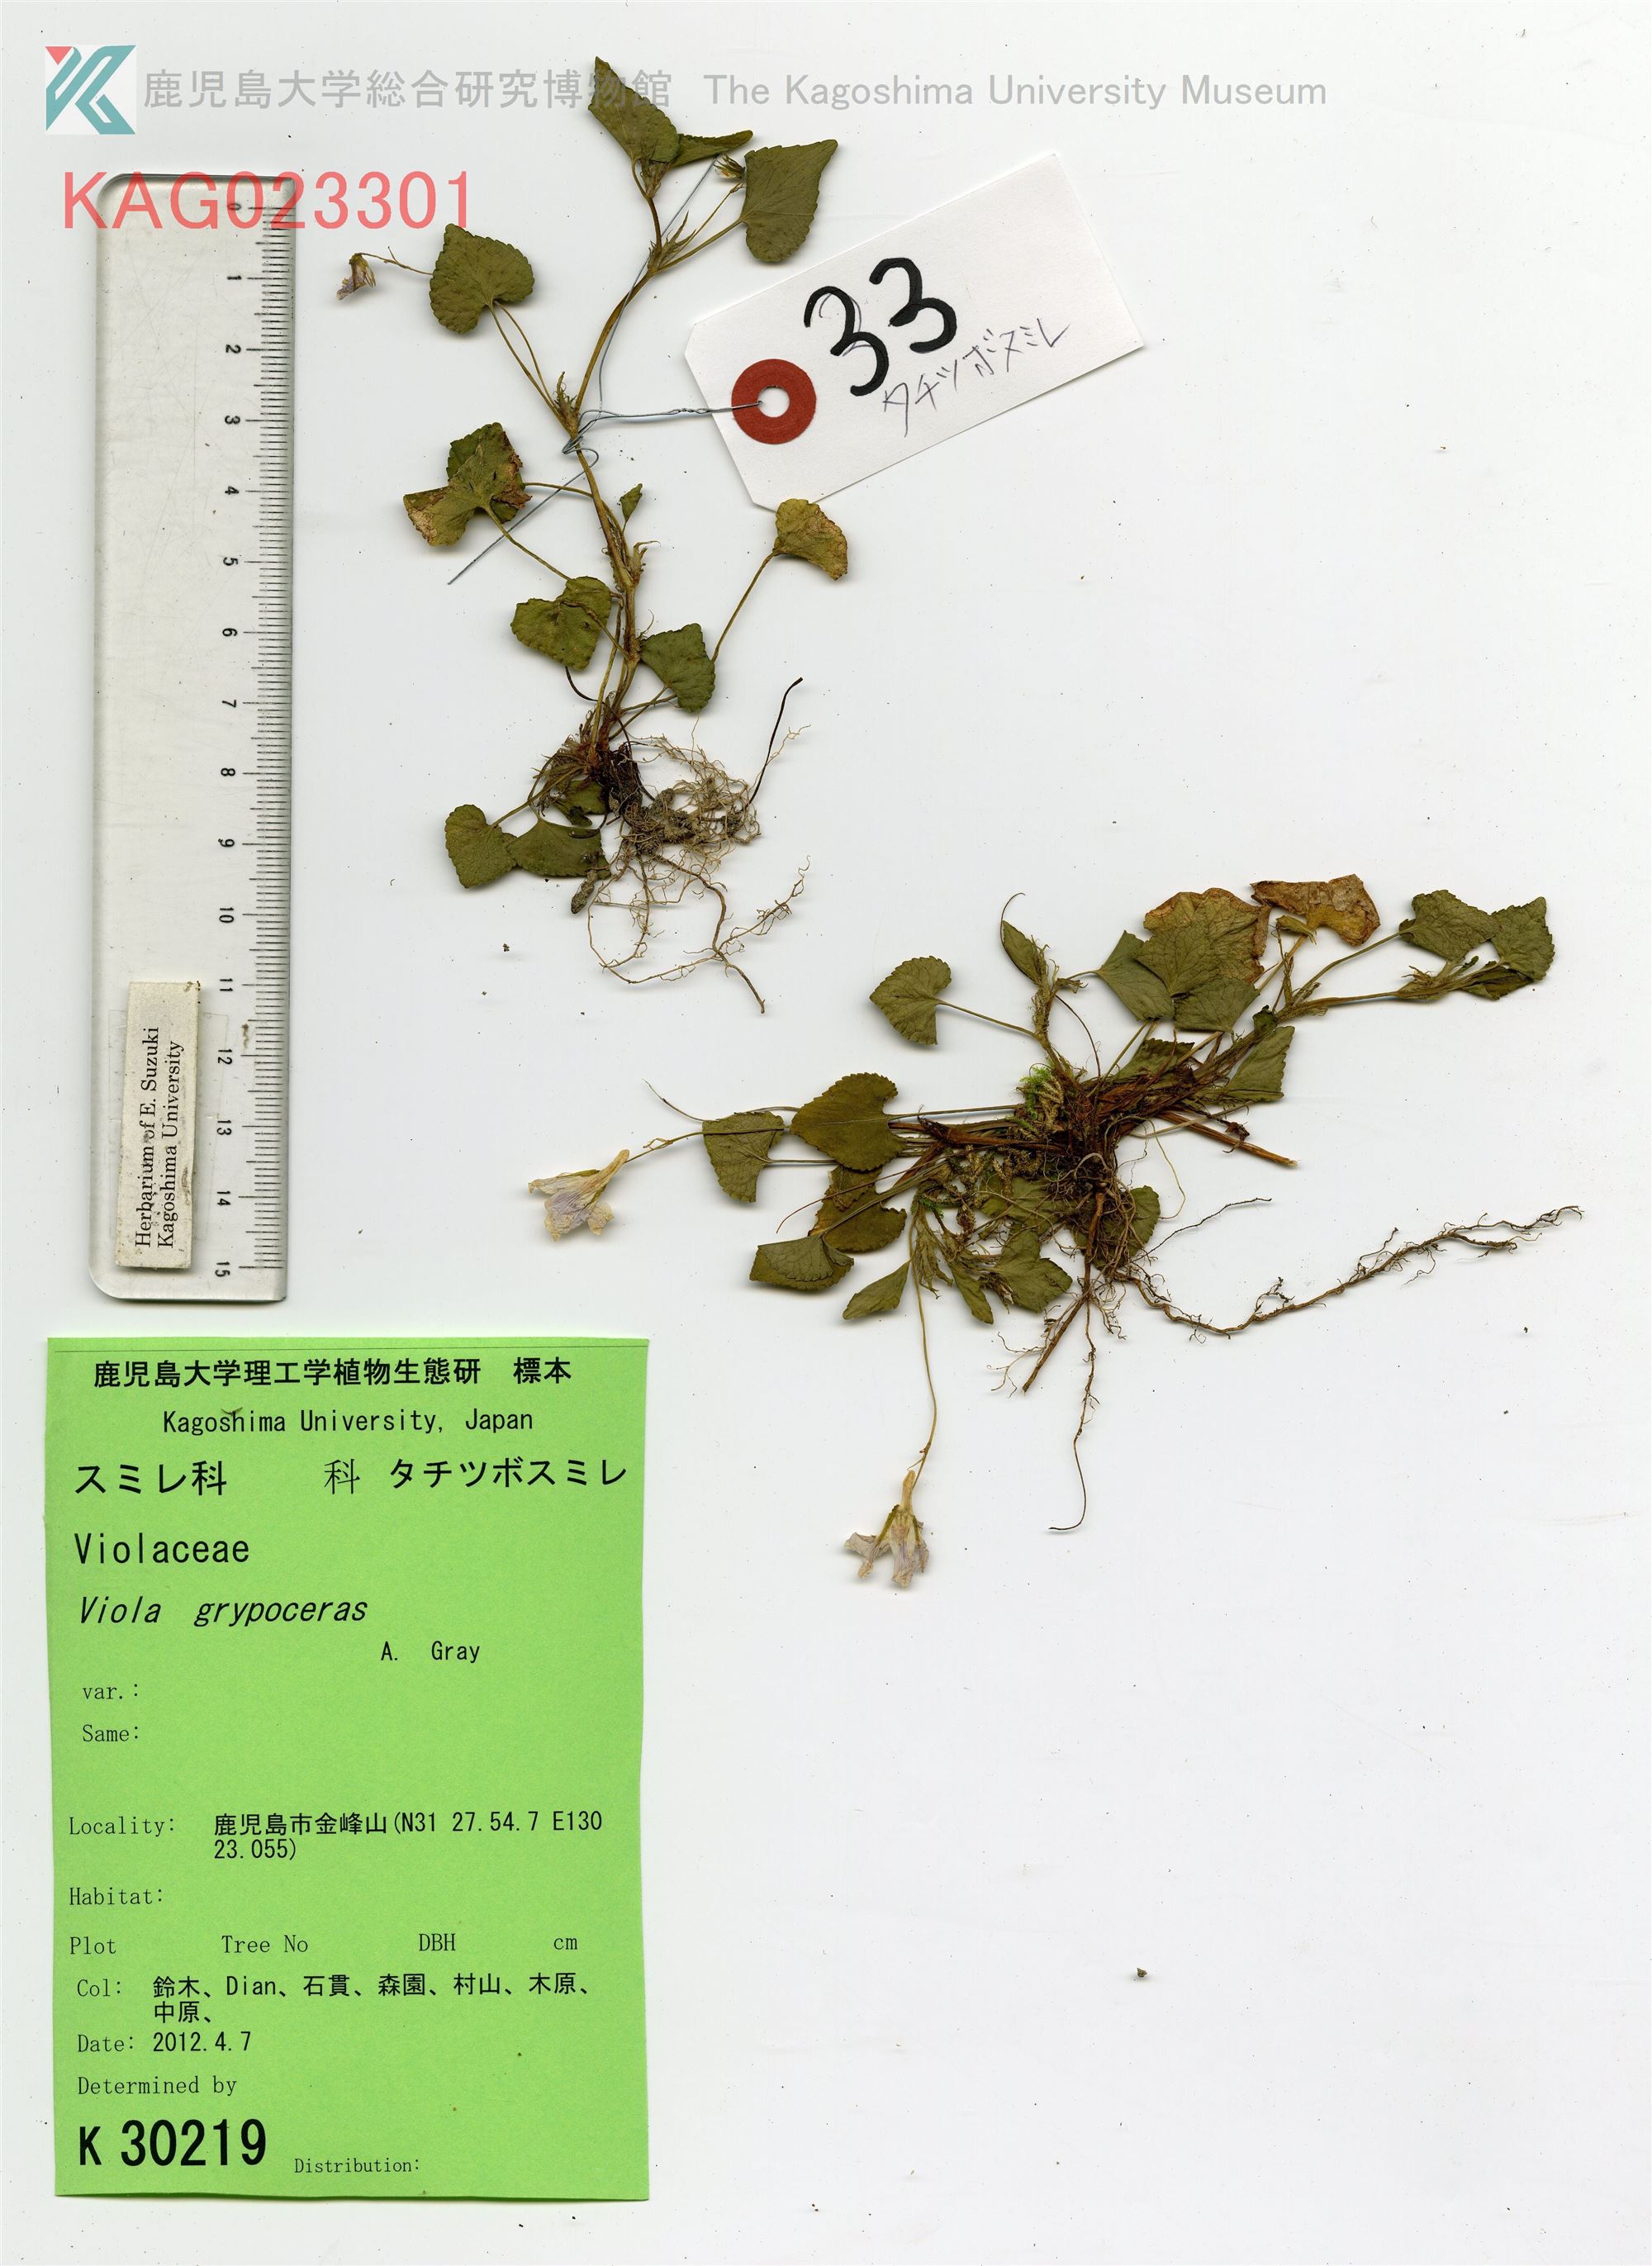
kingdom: Plantae
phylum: Tracheophyta
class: Magnoliopsida
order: Malpighiales
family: Violaceae
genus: Viola
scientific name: Viola grypoceras
